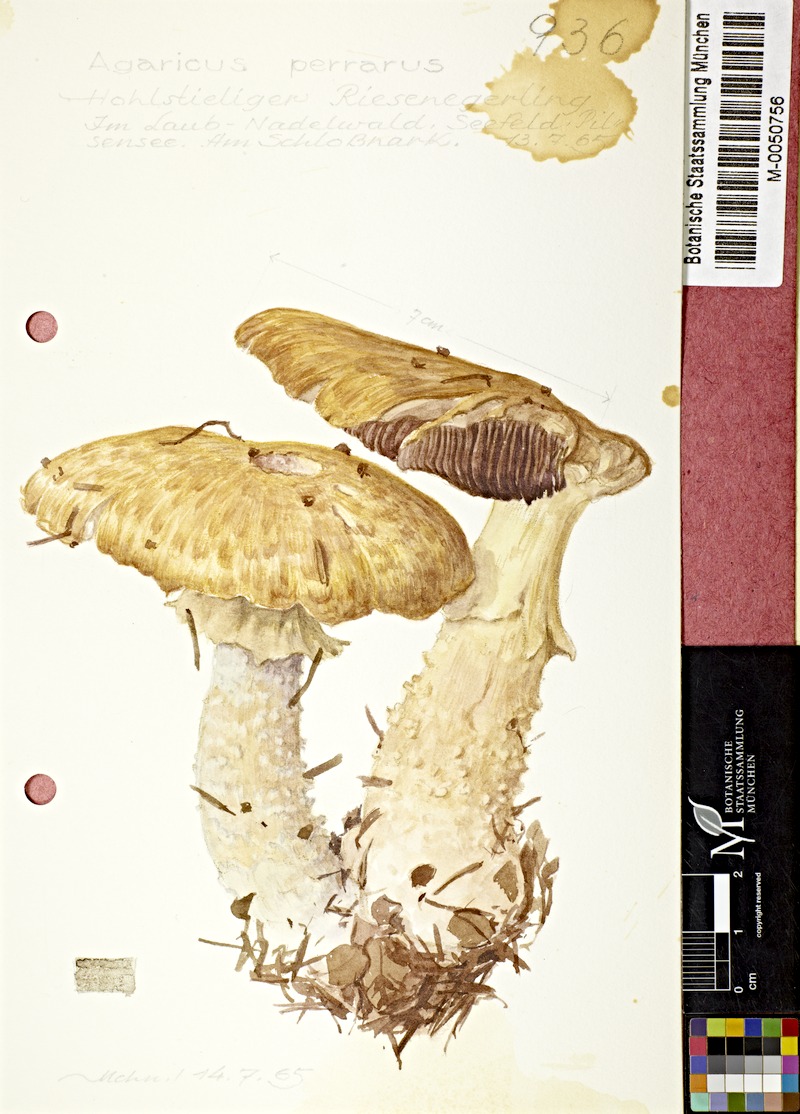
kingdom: Fungi
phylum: Basidiomycota
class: Agaricomycetes
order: Agaricales
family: Agaricaceae
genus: Agaricus
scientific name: Agaricus augustus
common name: Prince
